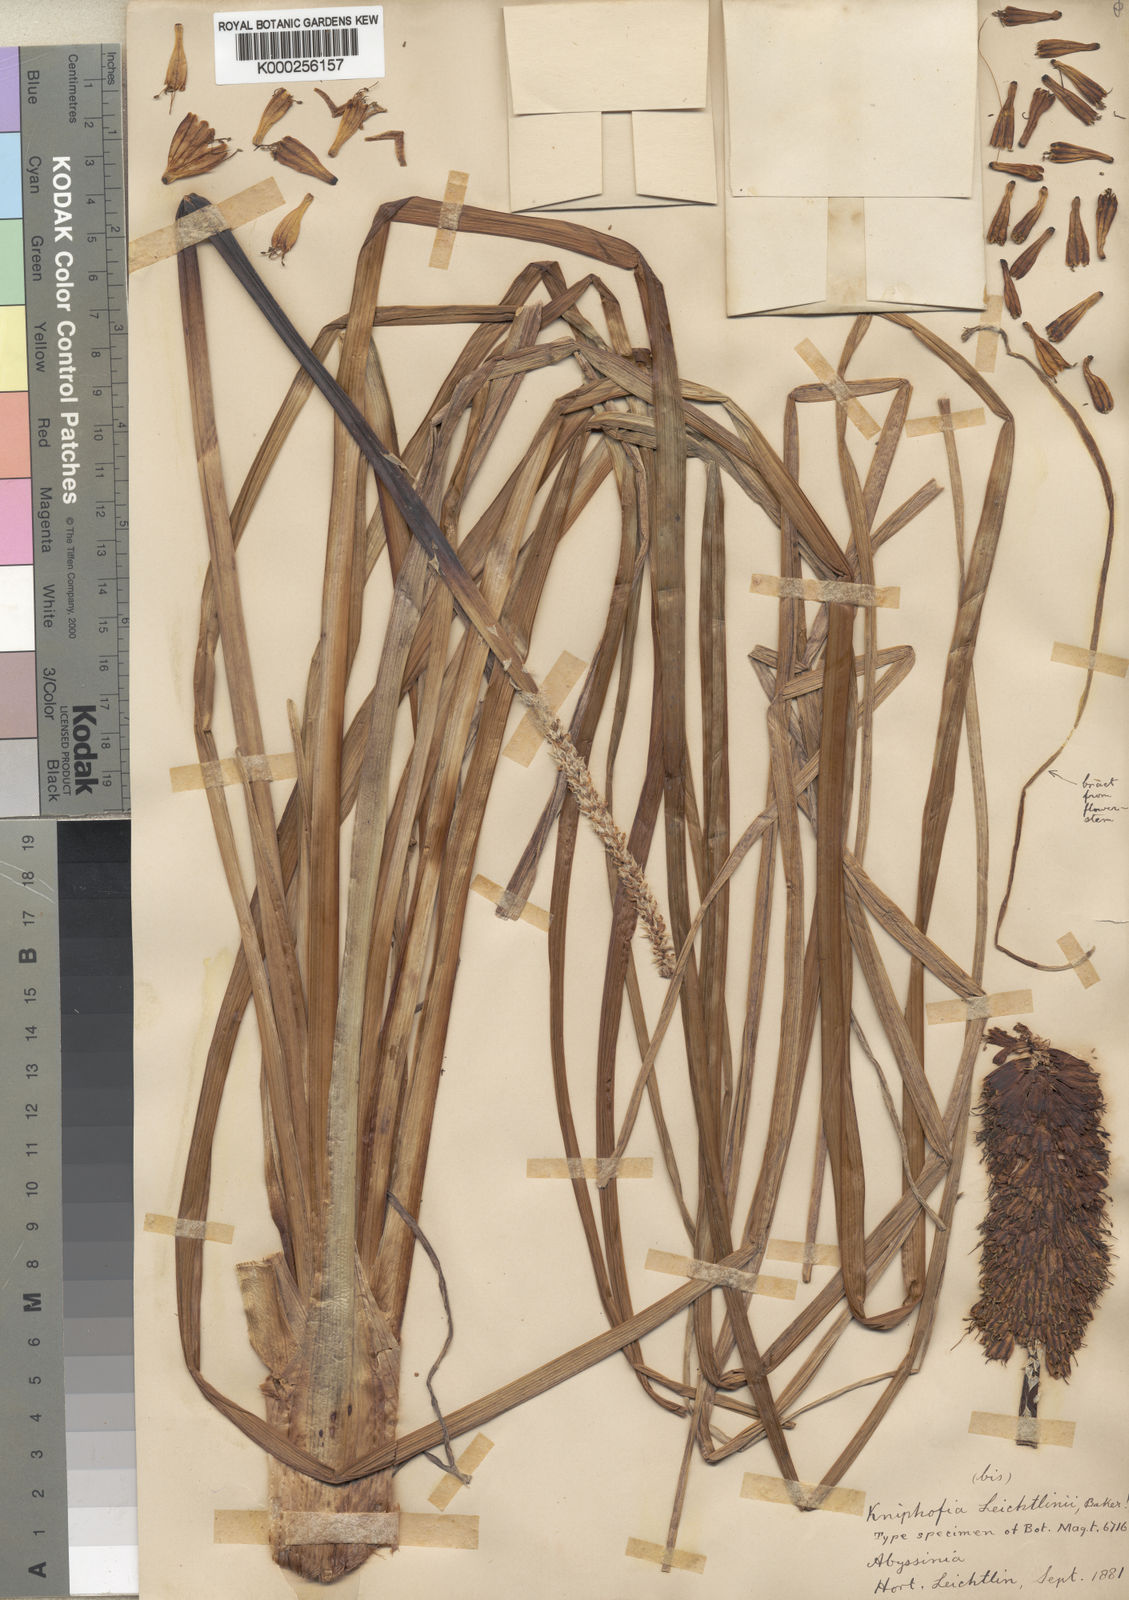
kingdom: Plantae
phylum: Tracheophyta
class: Liliopsida
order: Asparagales
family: Asphodelaceae
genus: Kniphofia
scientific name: Kniphofia pumila
